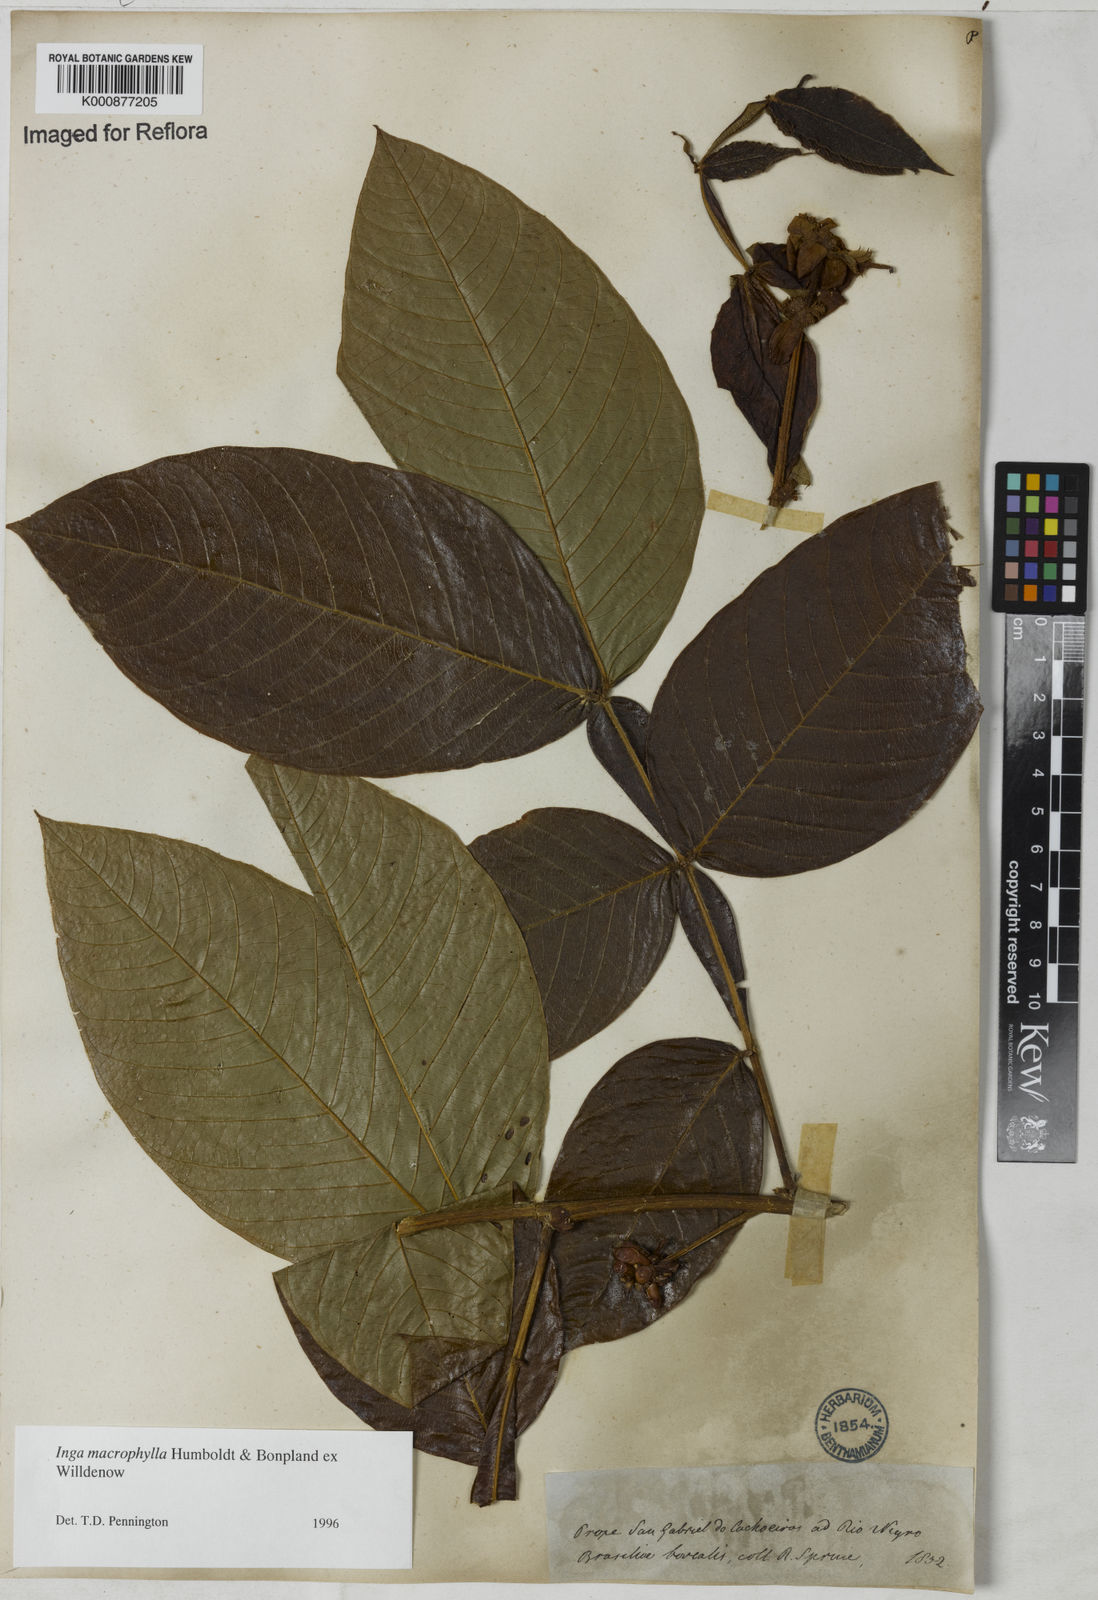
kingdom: Plantae
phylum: Tracheophyta
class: Magnoliopsida
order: Fabales
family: Fabaceae
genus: Inga
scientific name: Inga macrophylla
